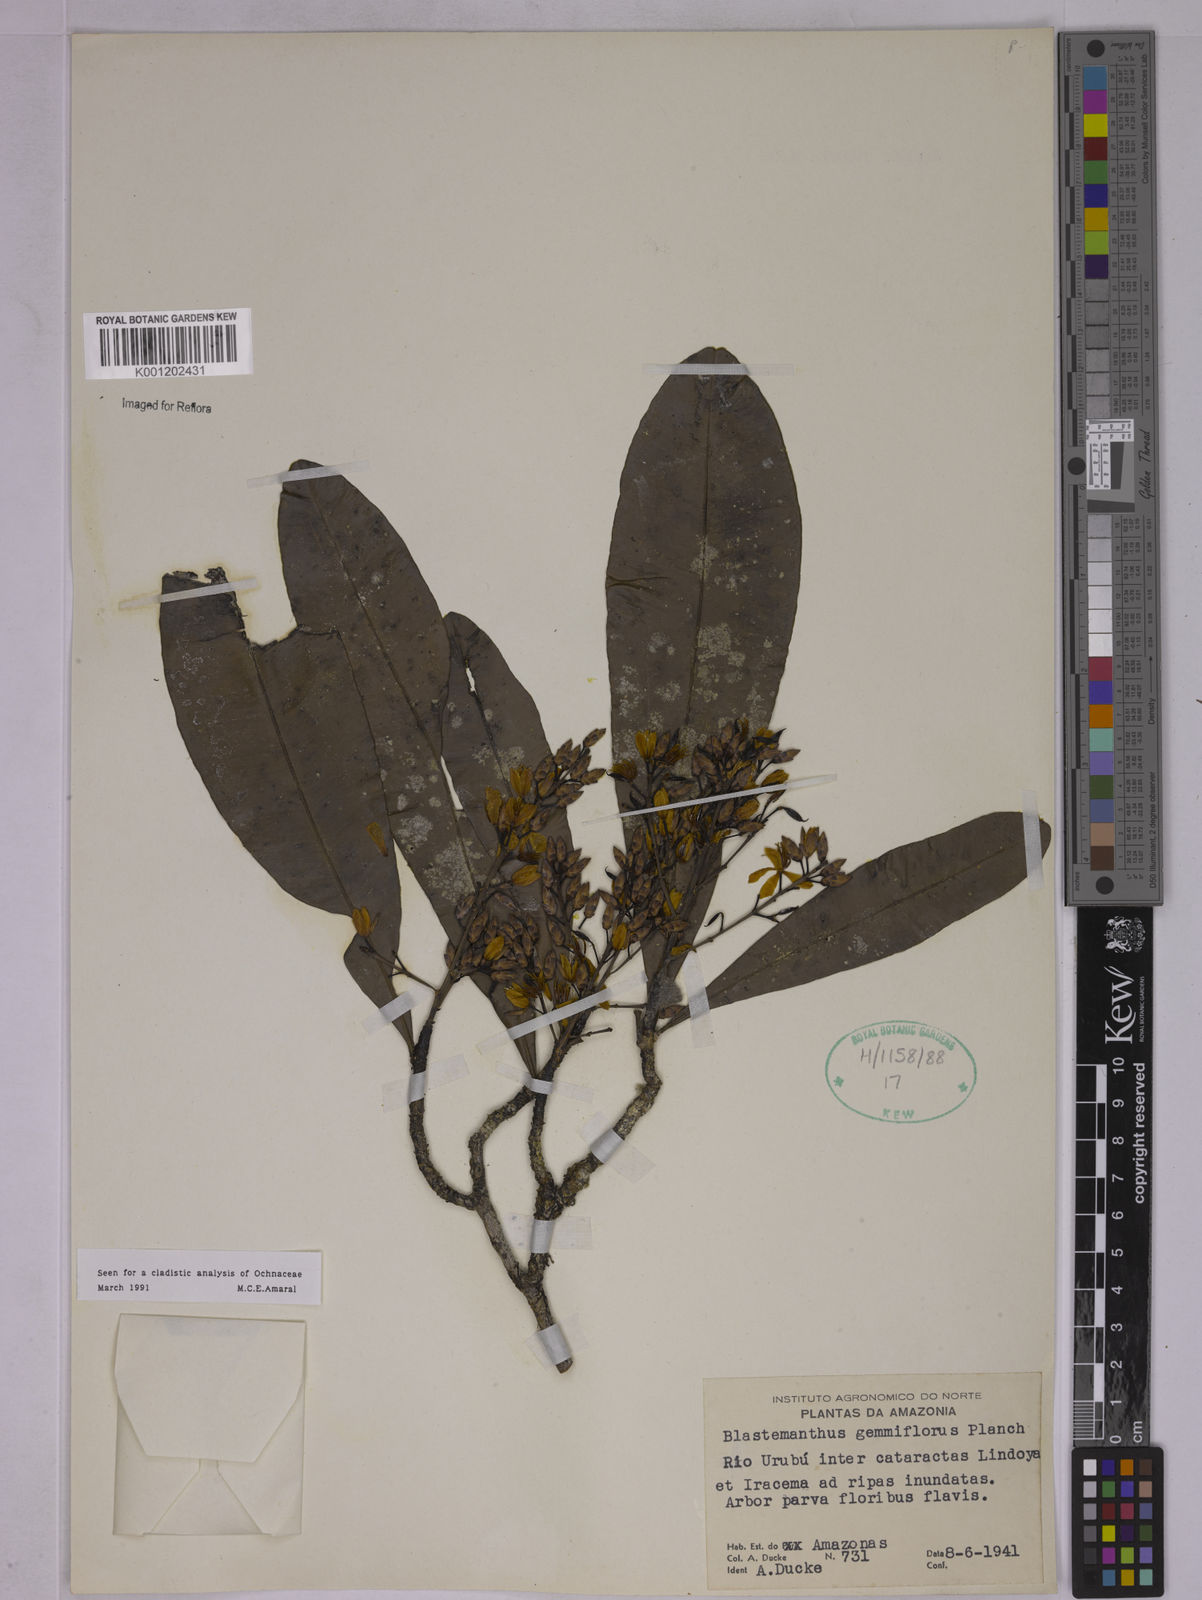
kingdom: Plantae
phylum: Tracheophyta
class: Magnoliopsida
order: Malpighiales
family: Ochnaceae
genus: Blastemanthus
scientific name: Blastemanthus gemmiflorus
